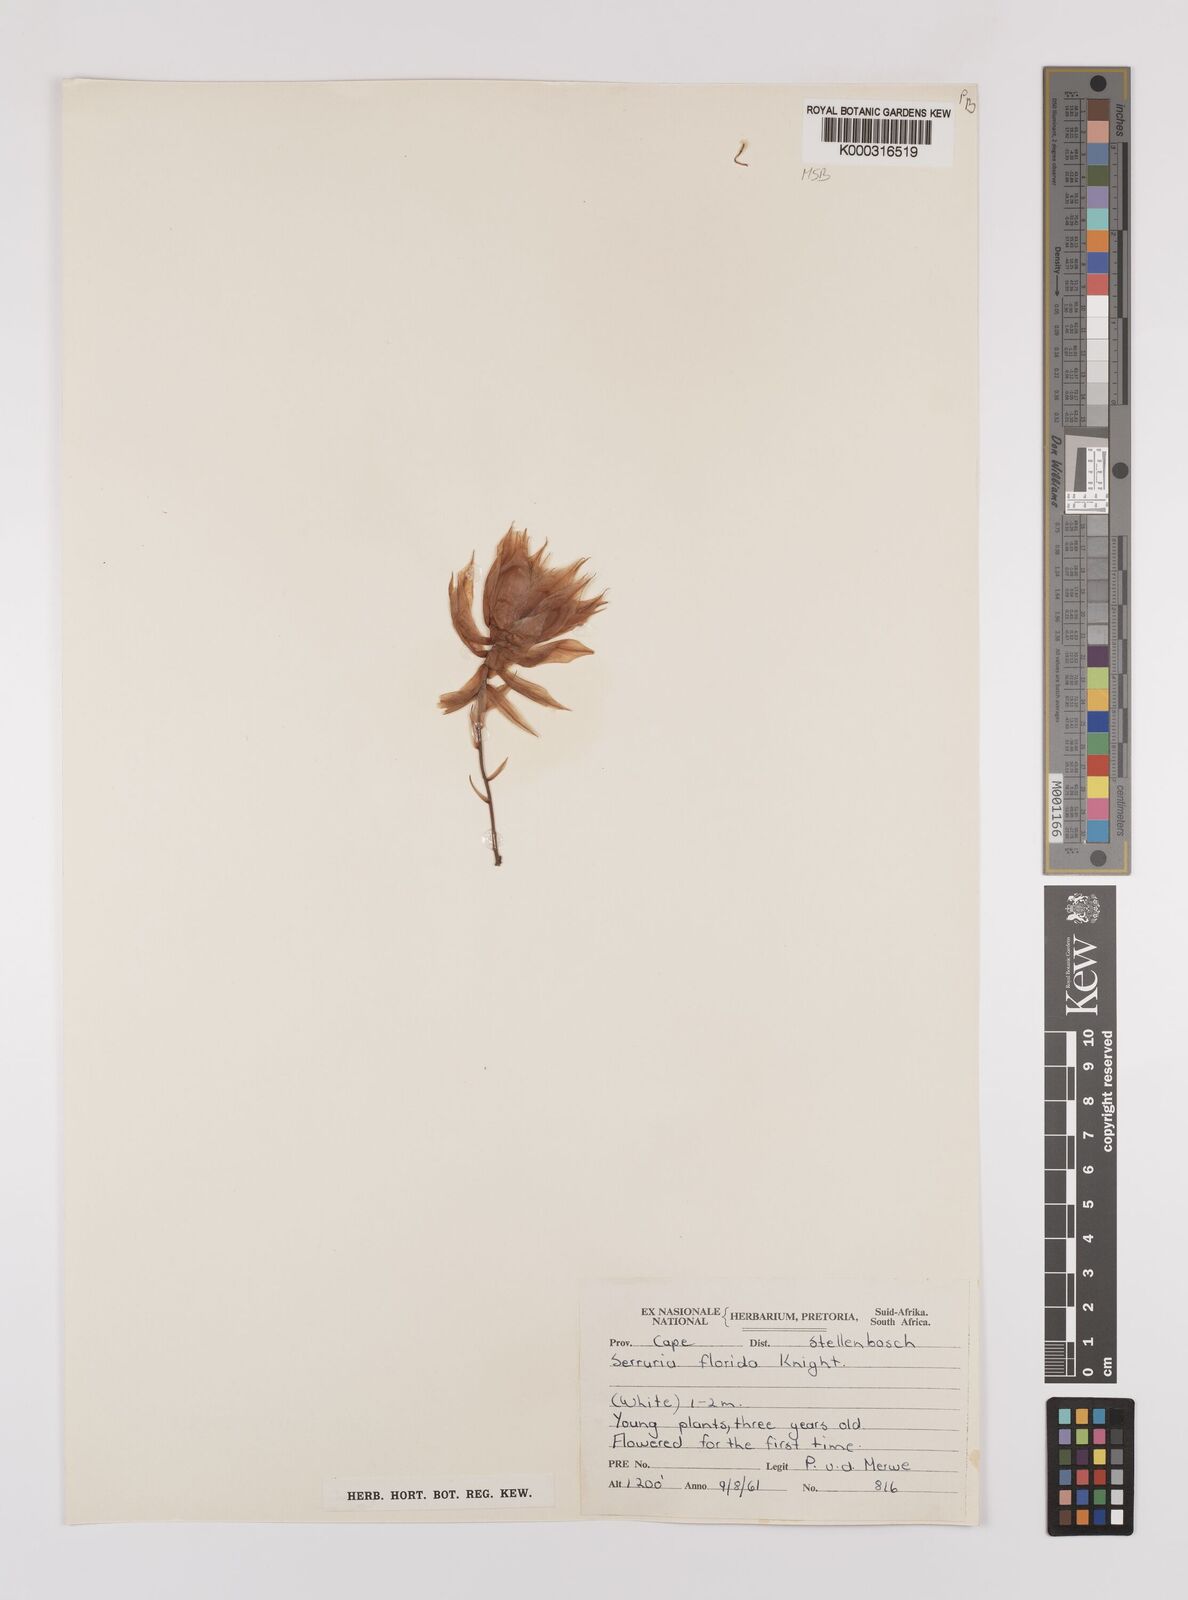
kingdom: Plantae
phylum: Tracheophyta
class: Magnoliopsida
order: Proteales
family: Proteaceae
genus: Serruria
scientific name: Serruria florida
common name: Blushing bride
